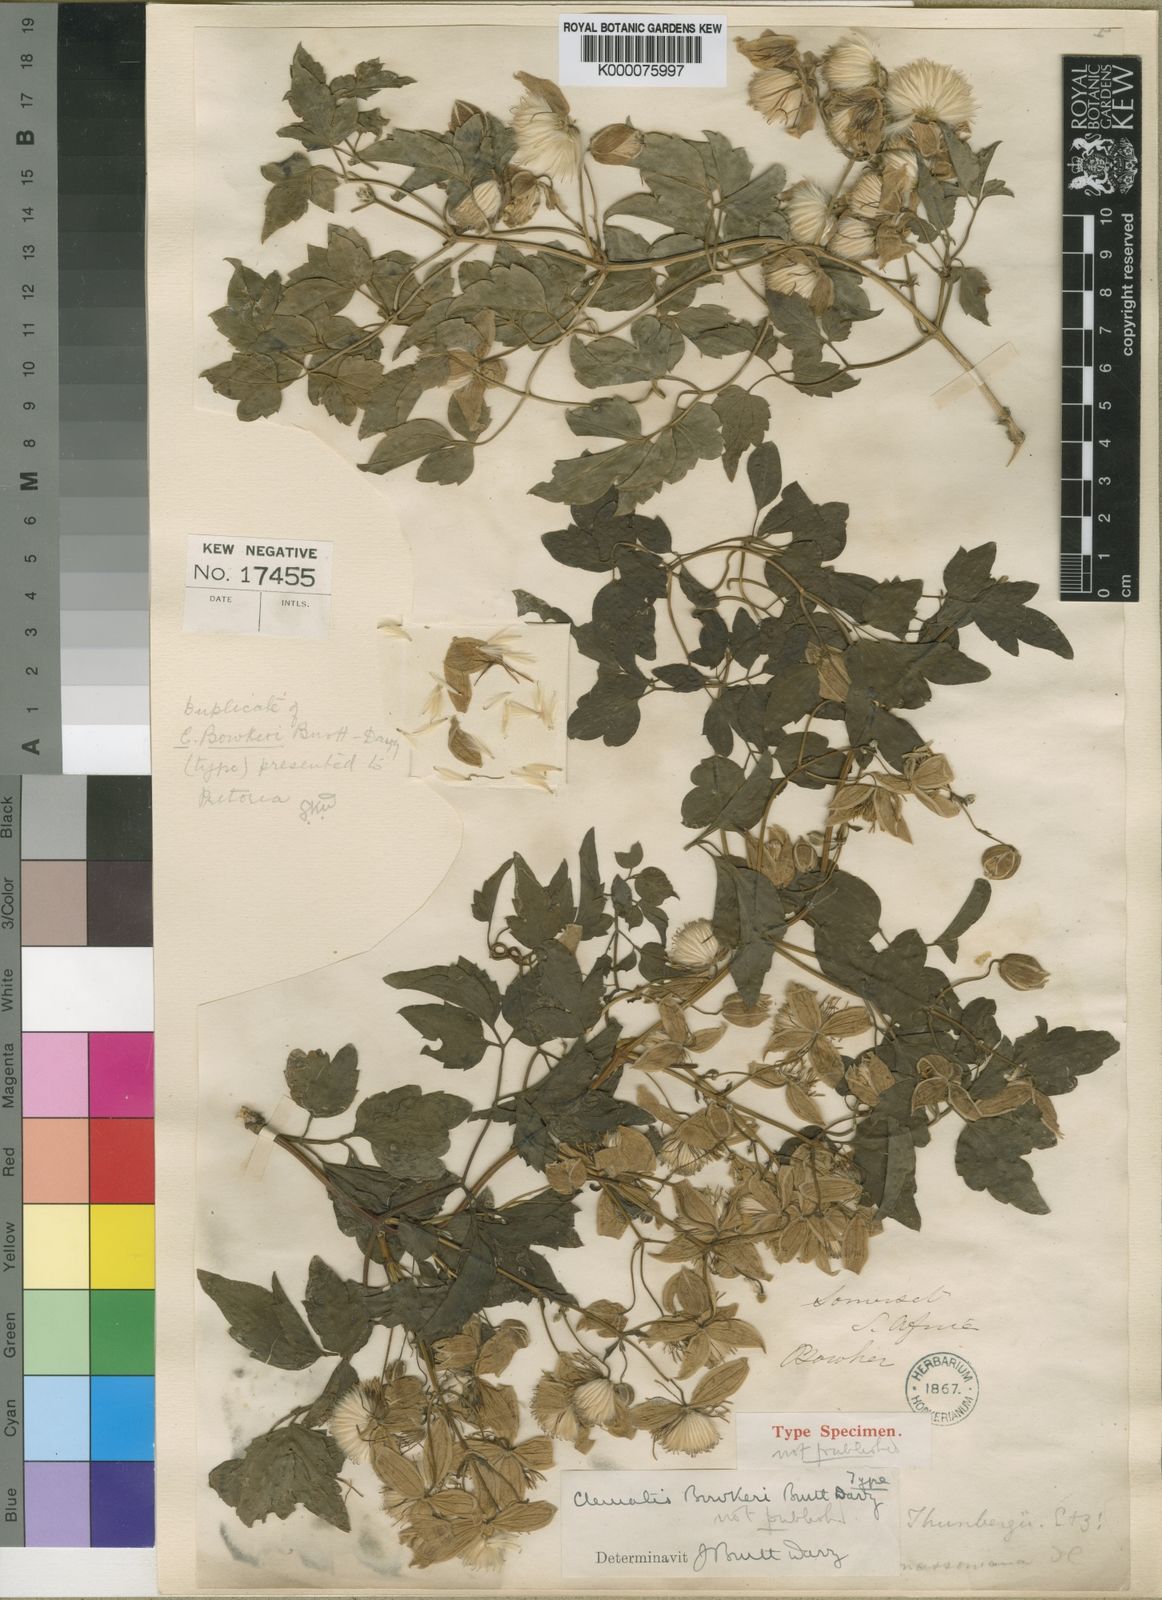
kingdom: Plantae
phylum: Tracheophyta
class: Magnoliopsida
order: Ranunculales
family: Ranunculaceae
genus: Clematis
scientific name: Clematis bowkeri
